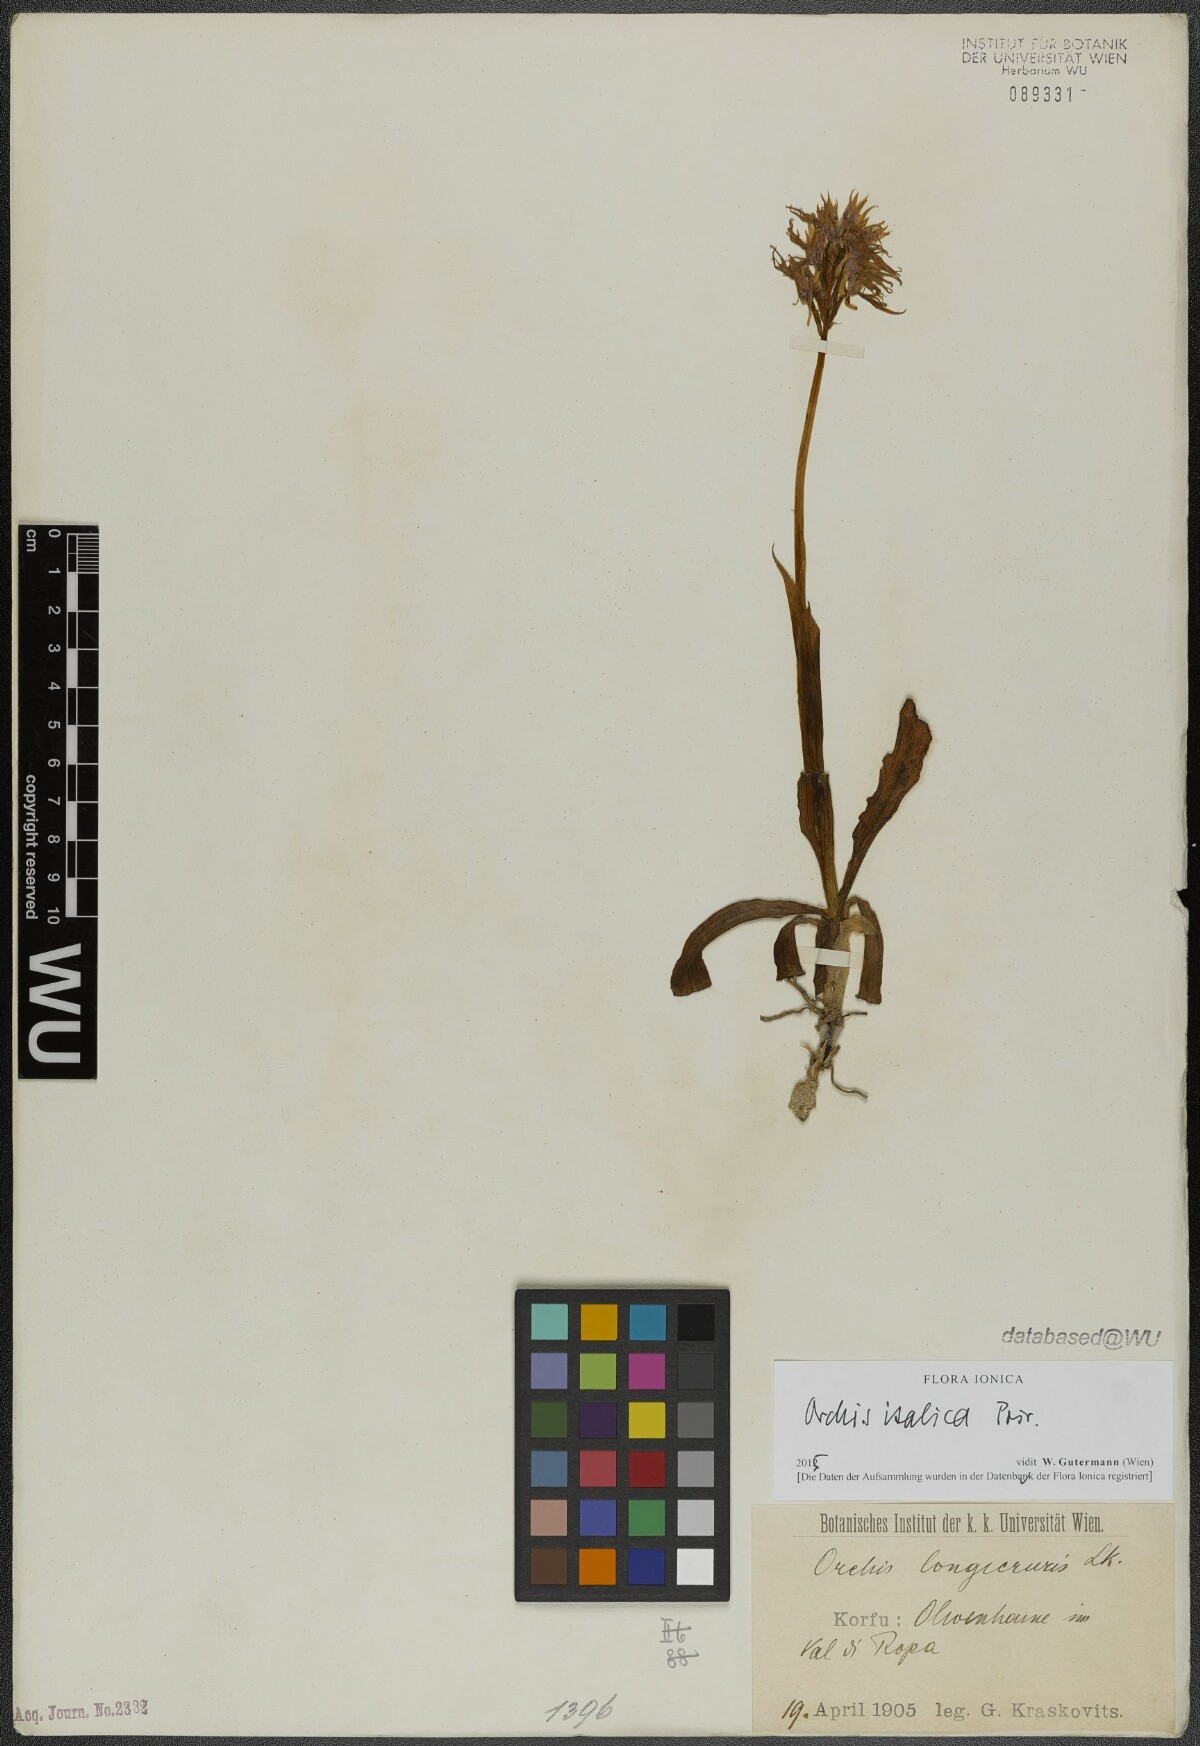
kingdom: Plantae
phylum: Tracheophyta
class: Liliopsida
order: Asparagales
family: Orchidaceae
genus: Orchis
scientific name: Orchis italica
